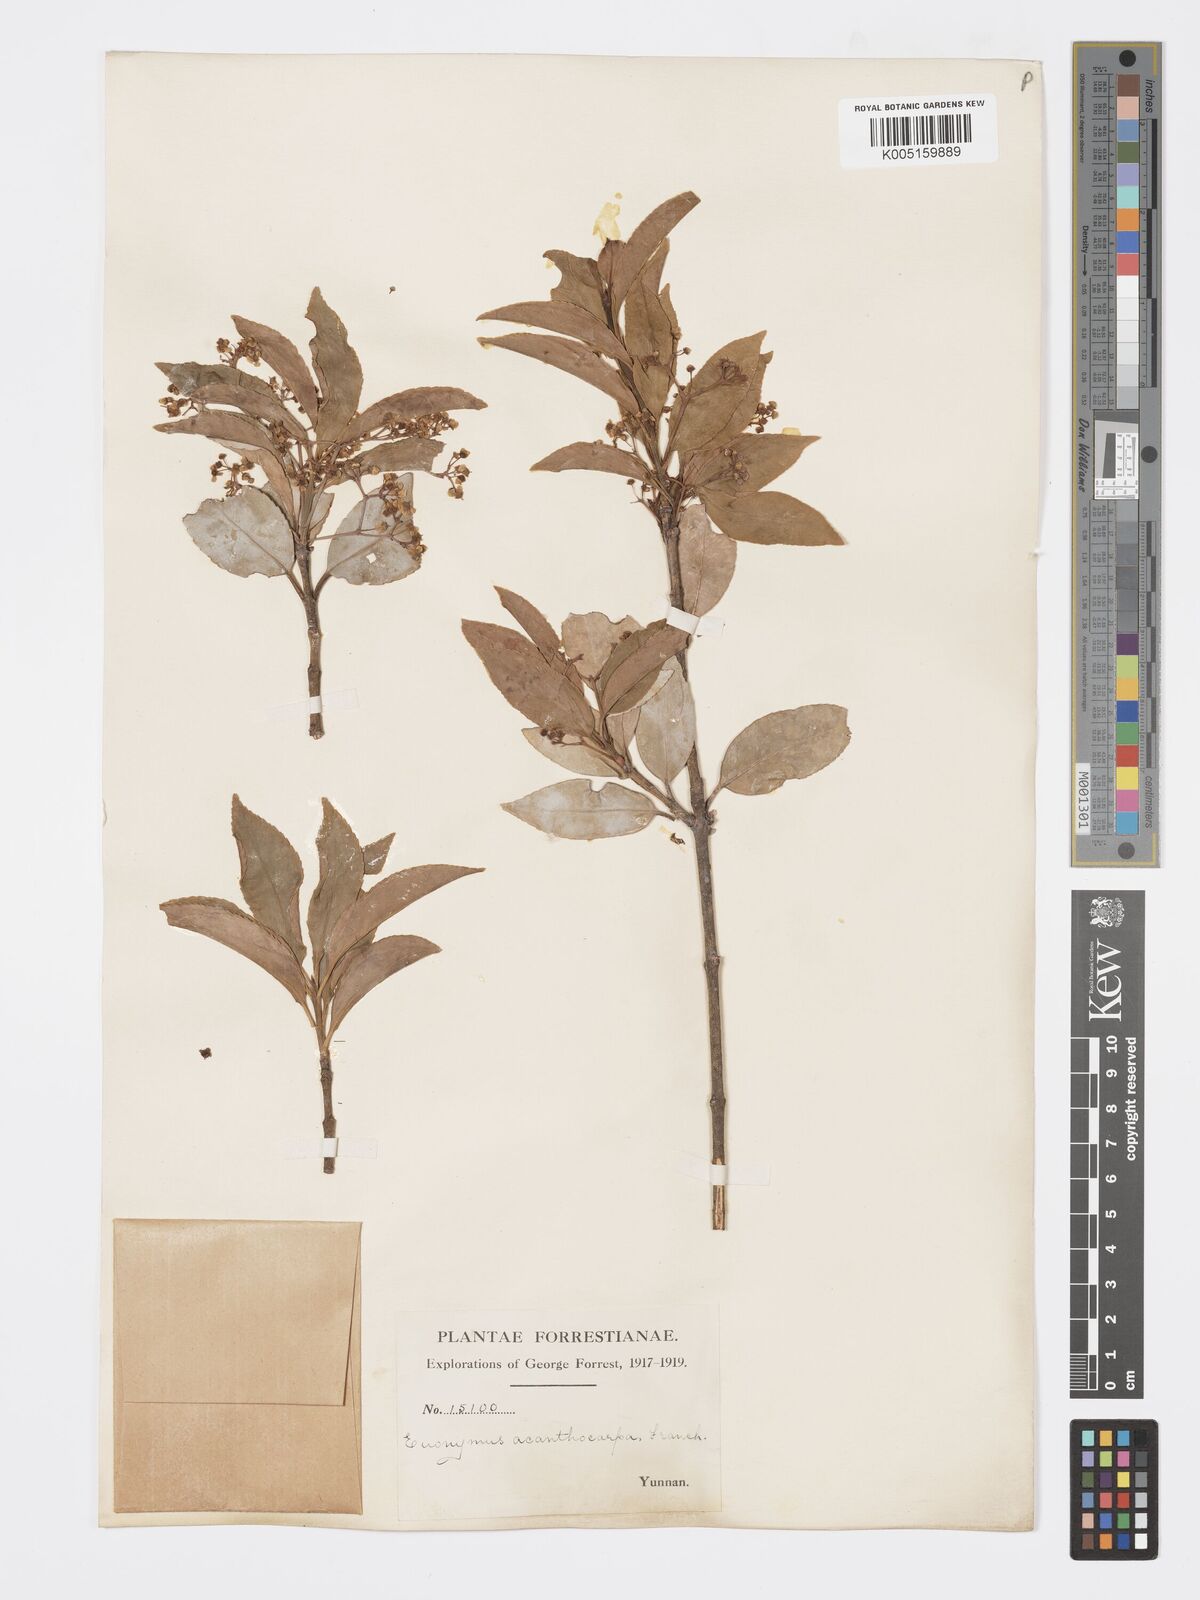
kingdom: Plantae
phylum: Tracheophyta
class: Magnoliopsida
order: Celastrales
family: Celastraceae
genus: Euonymus
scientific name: Euonymus acanthocarpus
